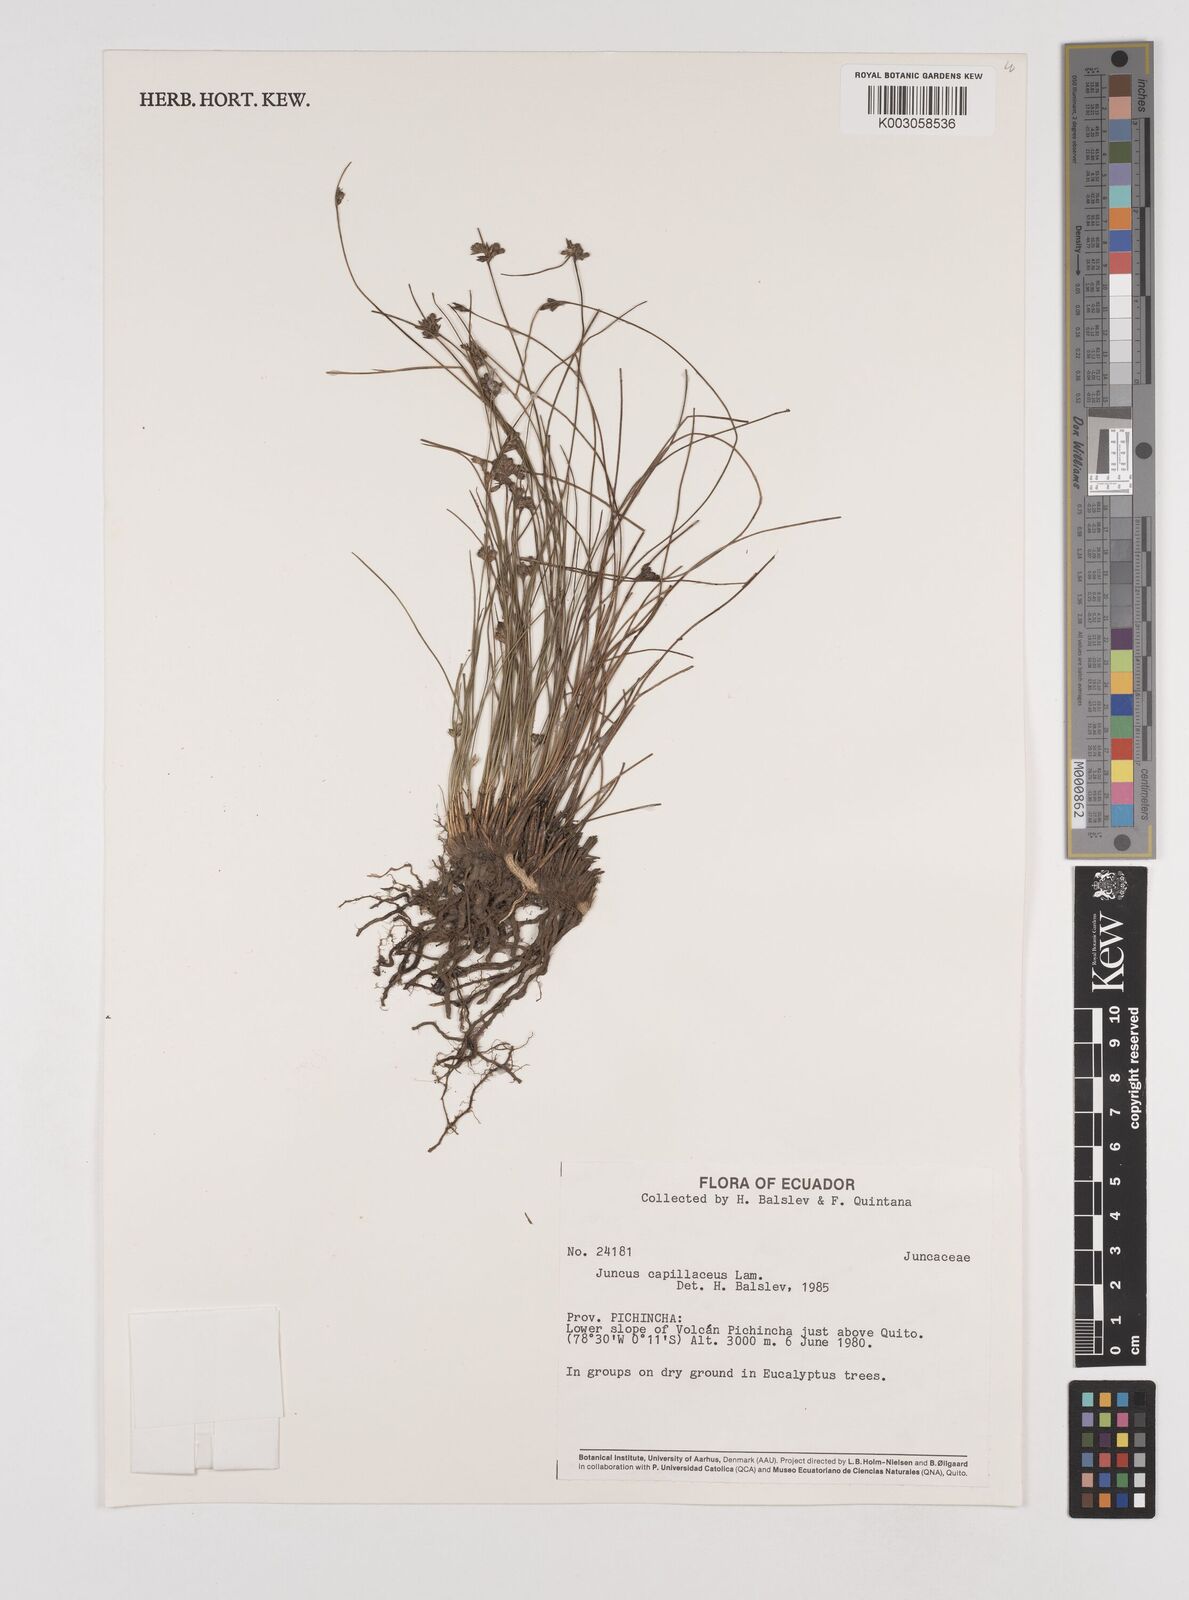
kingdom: Plantae
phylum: Tracheophyta
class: Liliopsida
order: Poales
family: Juncaceae
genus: Juncus
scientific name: Juncus capillaceus
